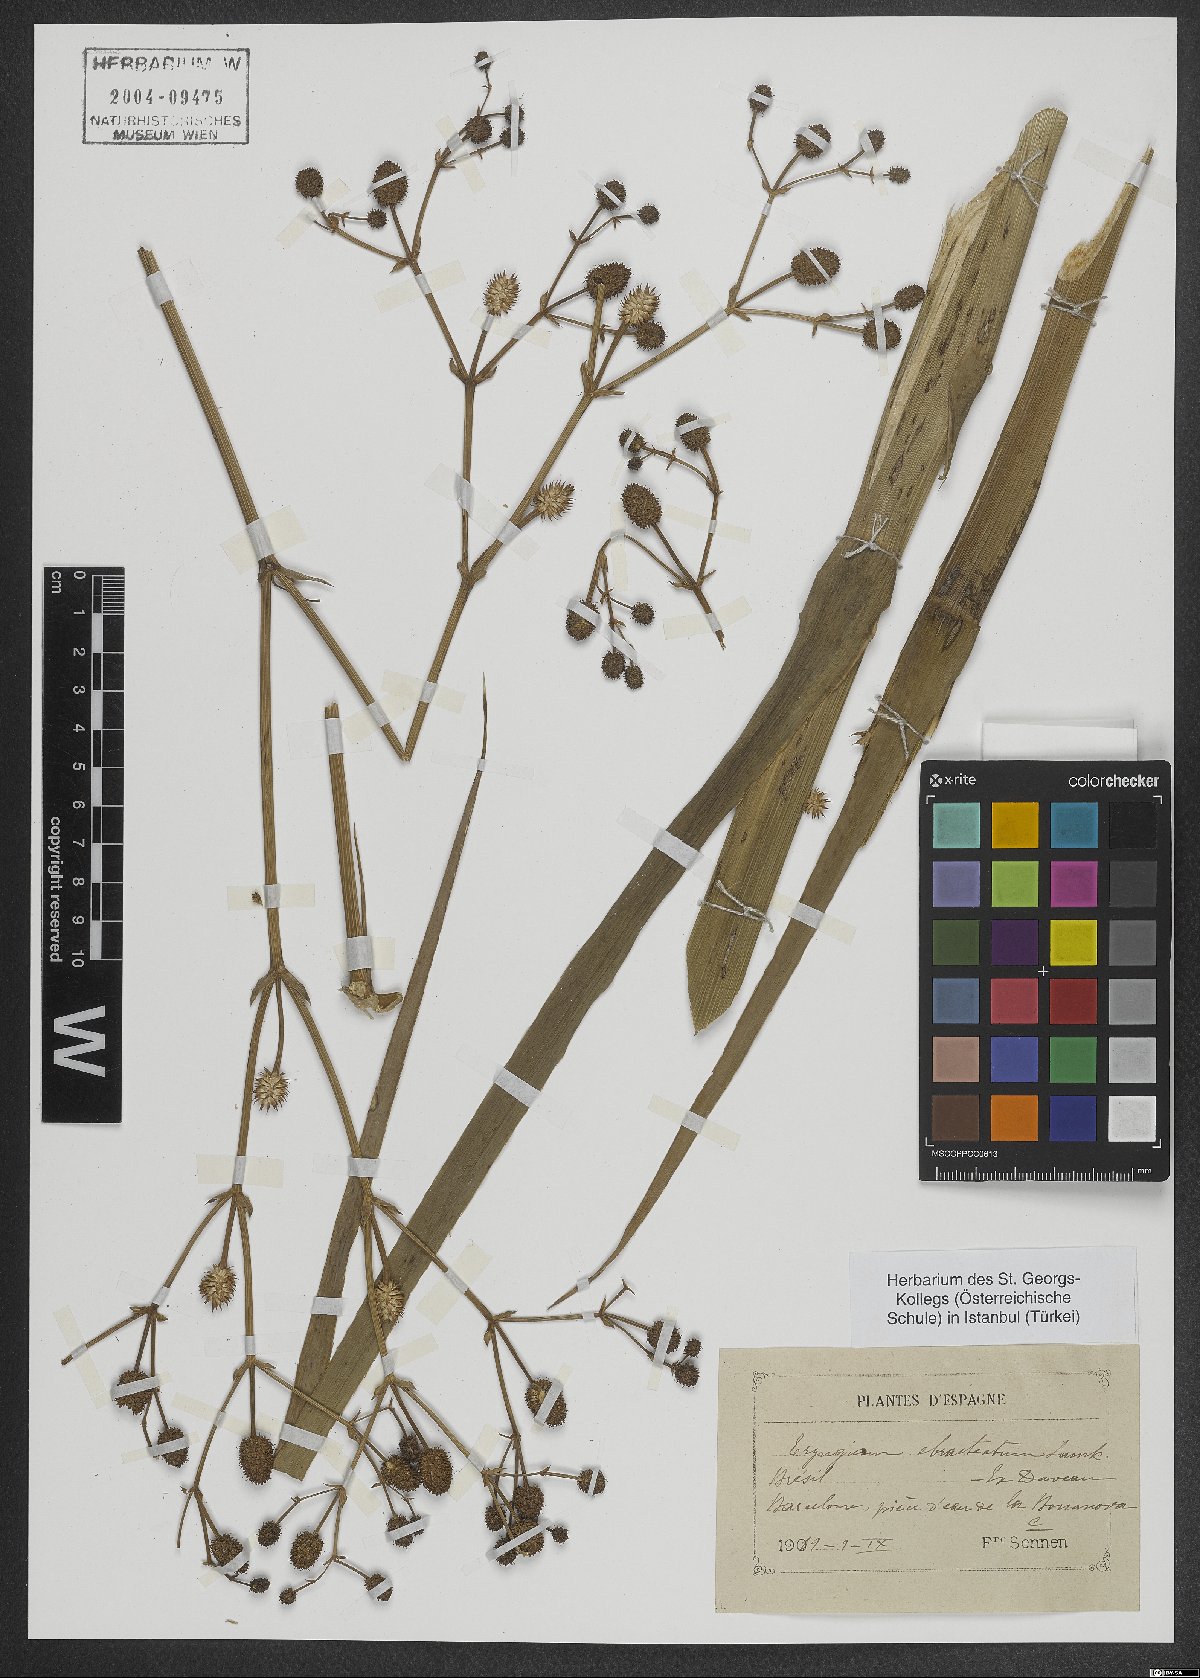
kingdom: Plantae
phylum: Tracheophyta
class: Magnoliopsida
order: Apiales
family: Apiaceae
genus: Eryngium
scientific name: Eryngium ebracteatum
